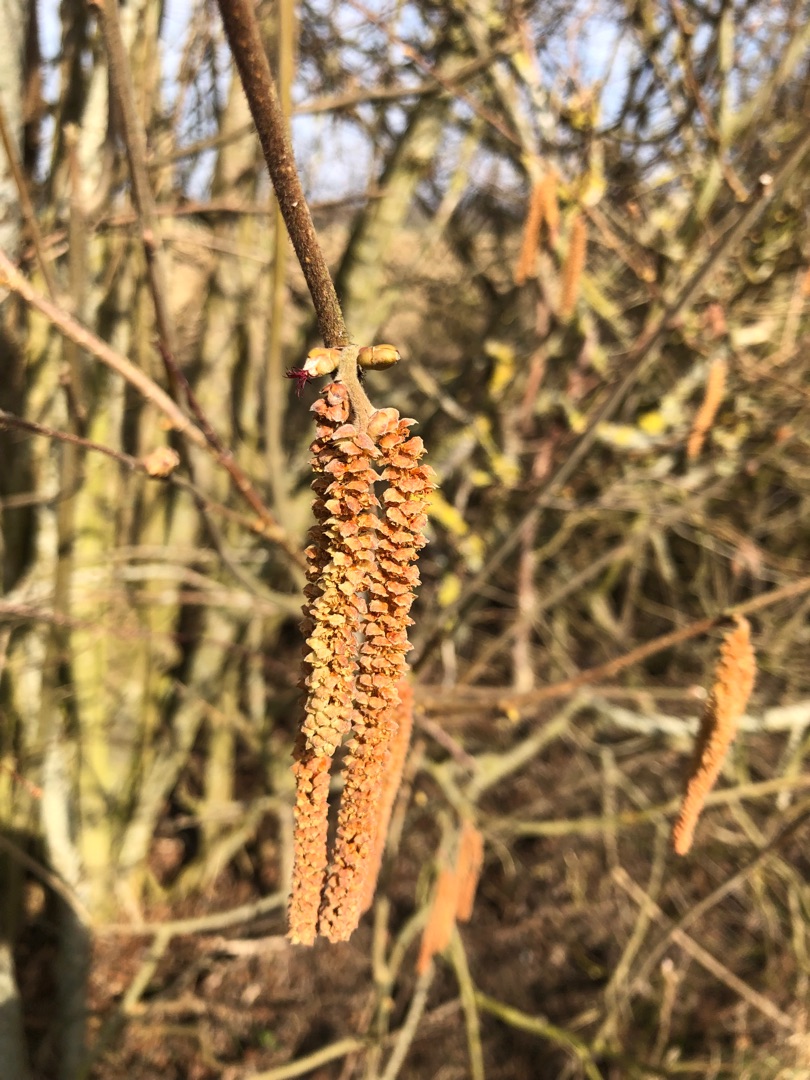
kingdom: Plantae
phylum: Tracheophyta
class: Magnoliopsida
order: Fagales
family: Betulaceae
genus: Corylus
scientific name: Corylus avellana
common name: Hassel
